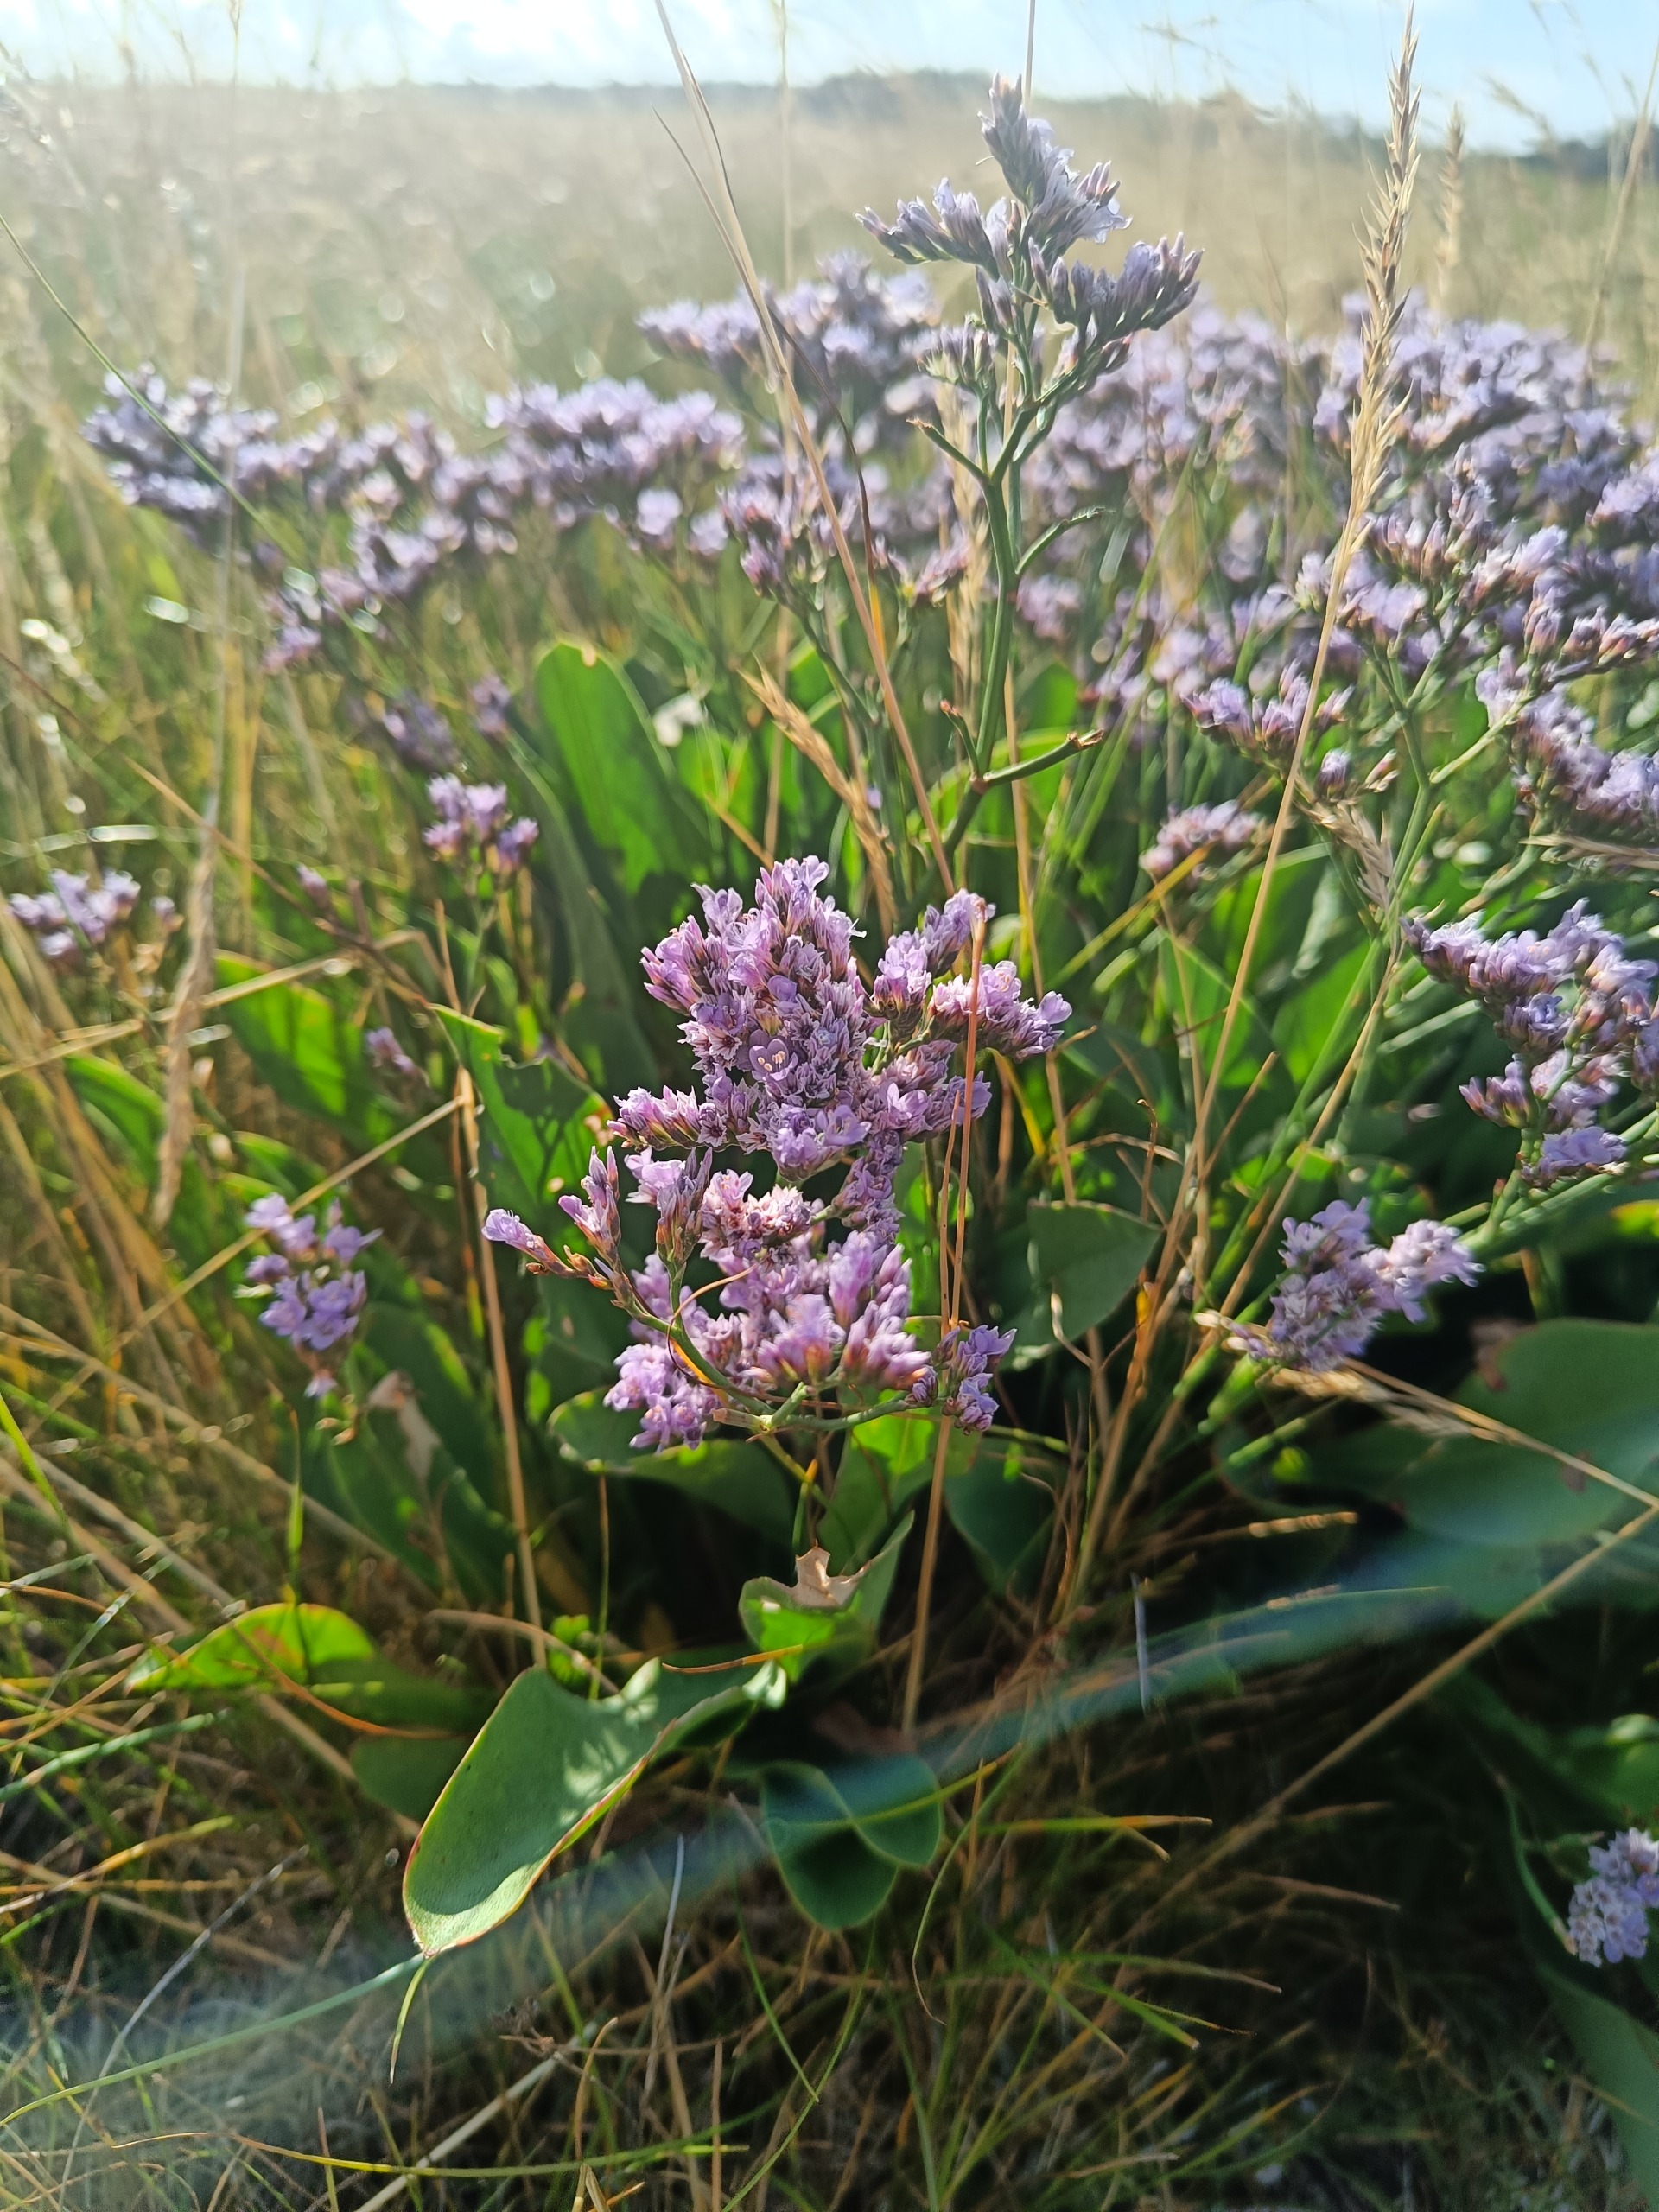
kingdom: Plantae
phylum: Tracheophyta
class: Magnoliopsida
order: Caryophyllales
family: Plumbaginaceae
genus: Limonium
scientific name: Limonium vulgare
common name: Tætblomstret hindebæger
